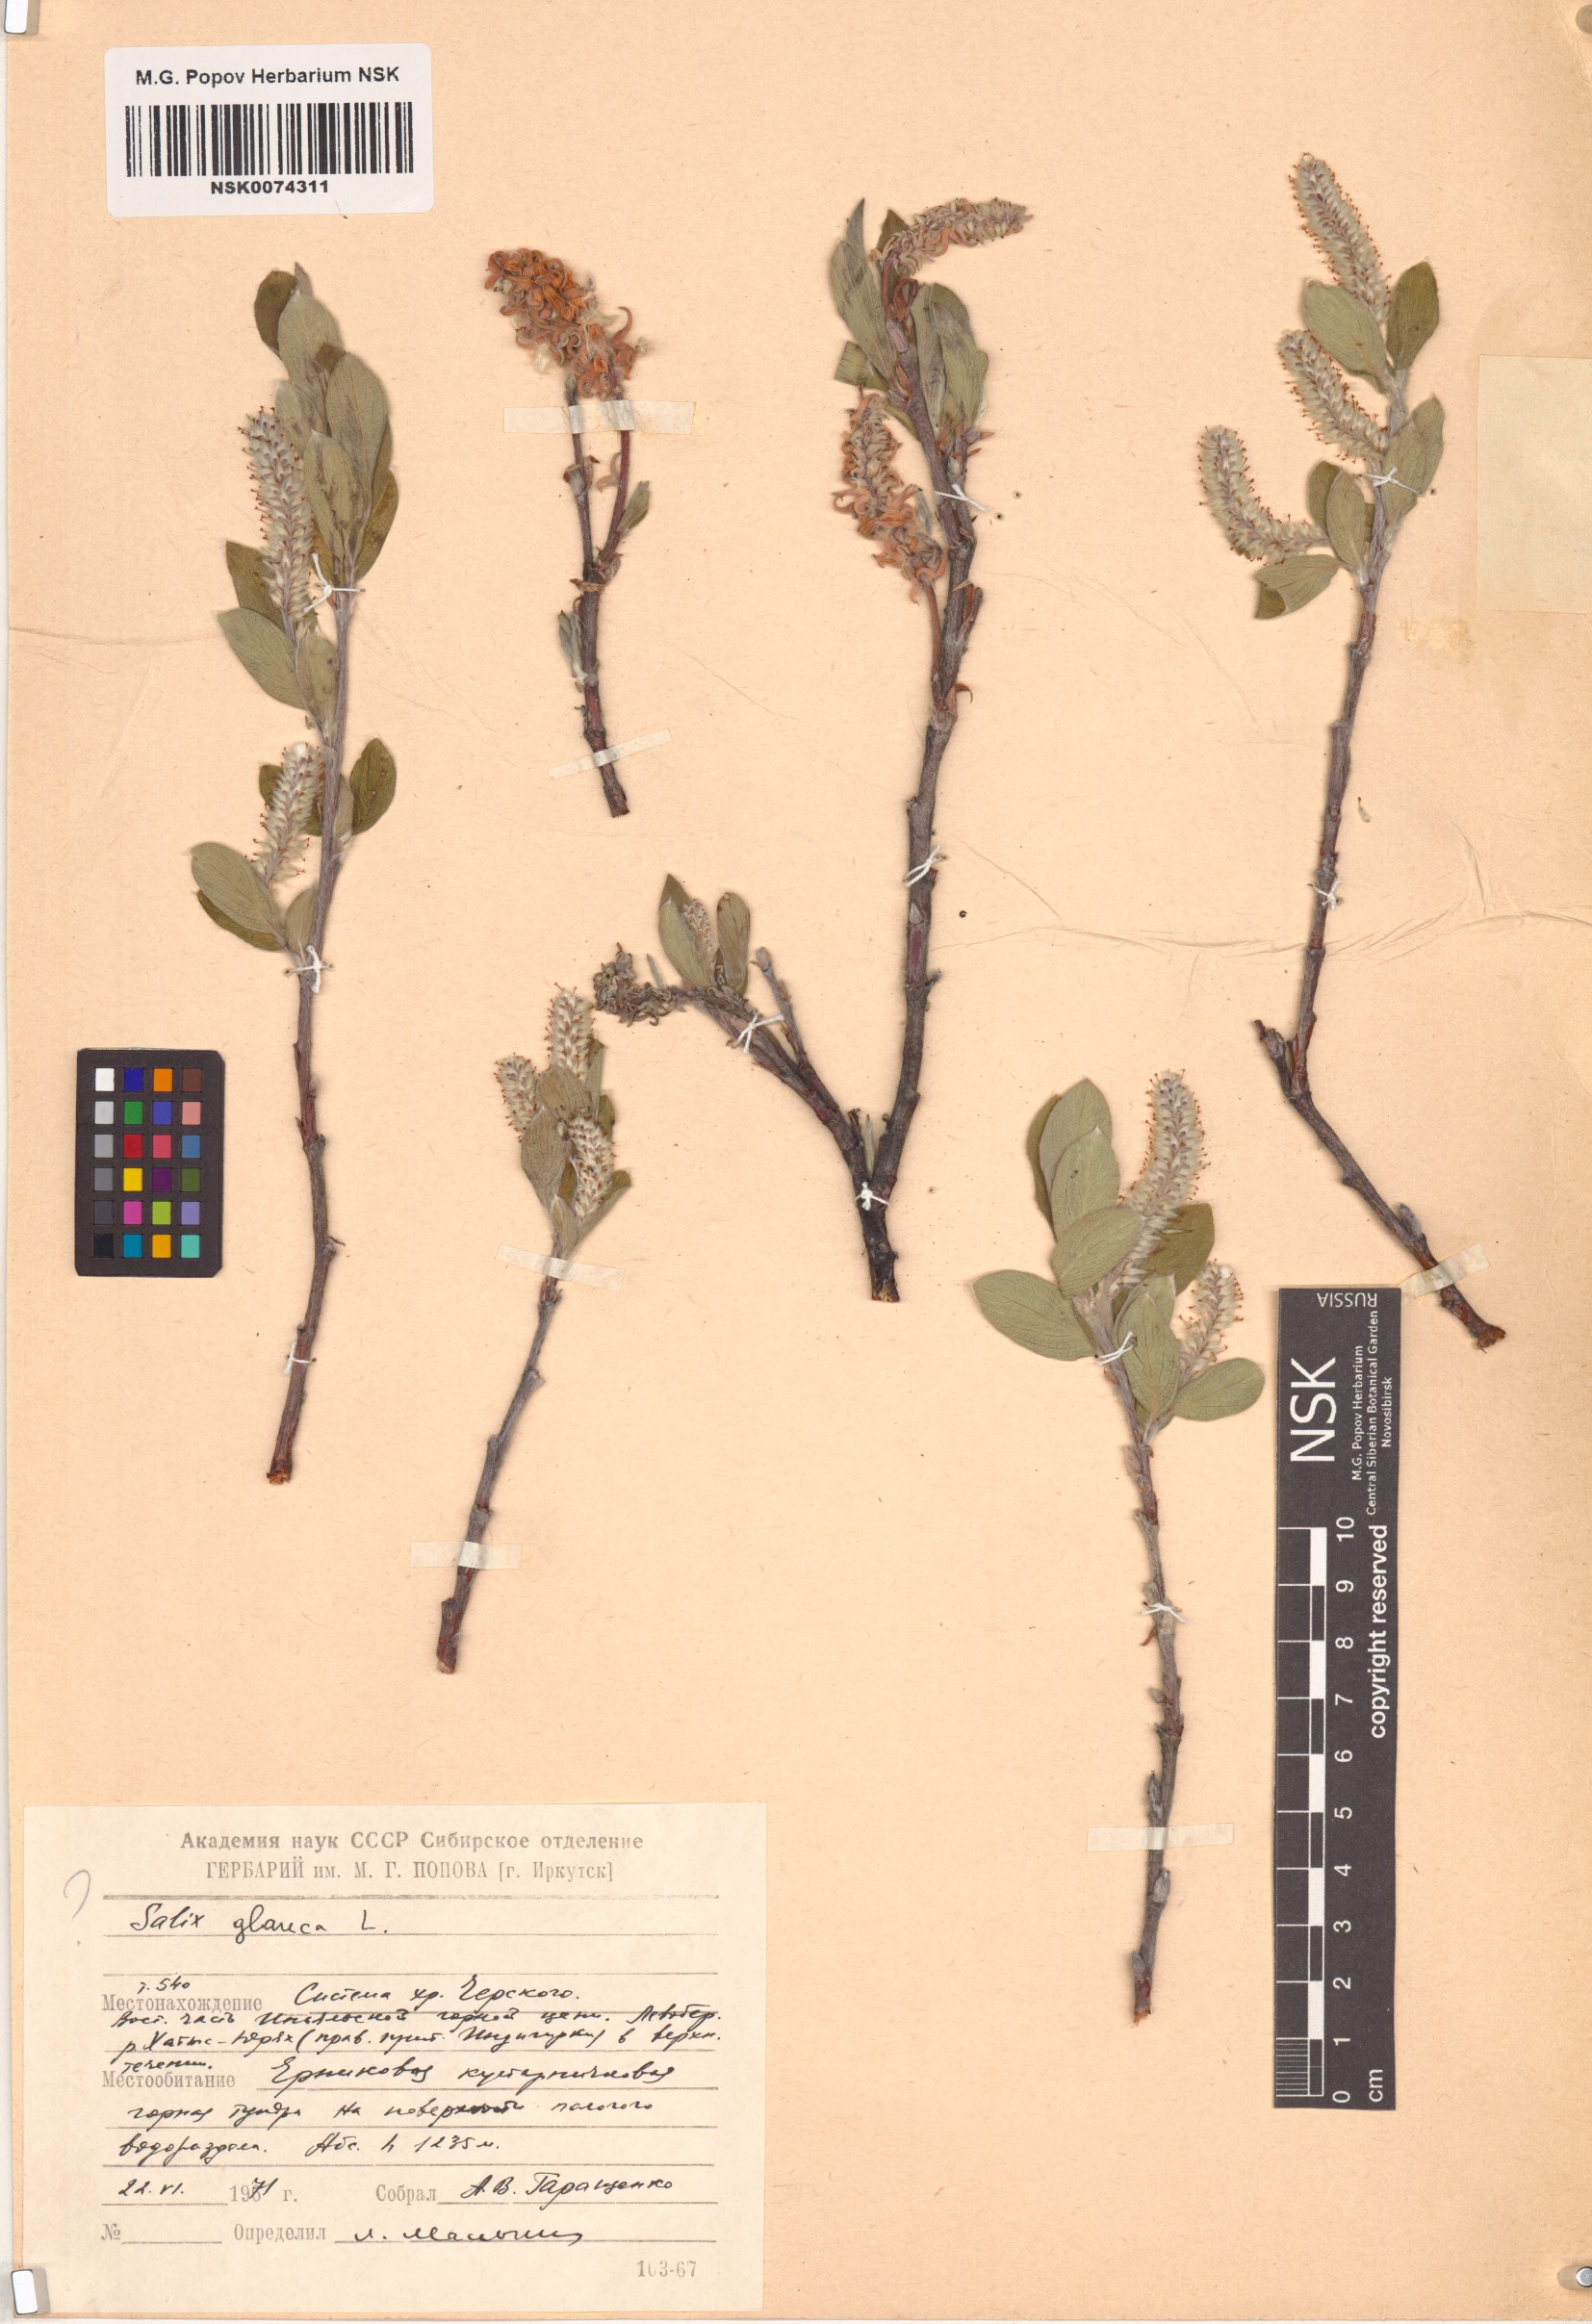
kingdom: Plantae
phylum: Tracheophyta
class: Magnoliopsida
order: Malpighiales
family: Salicaceae
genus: Salix
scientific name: Salix glauca
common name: Glaucous willow
